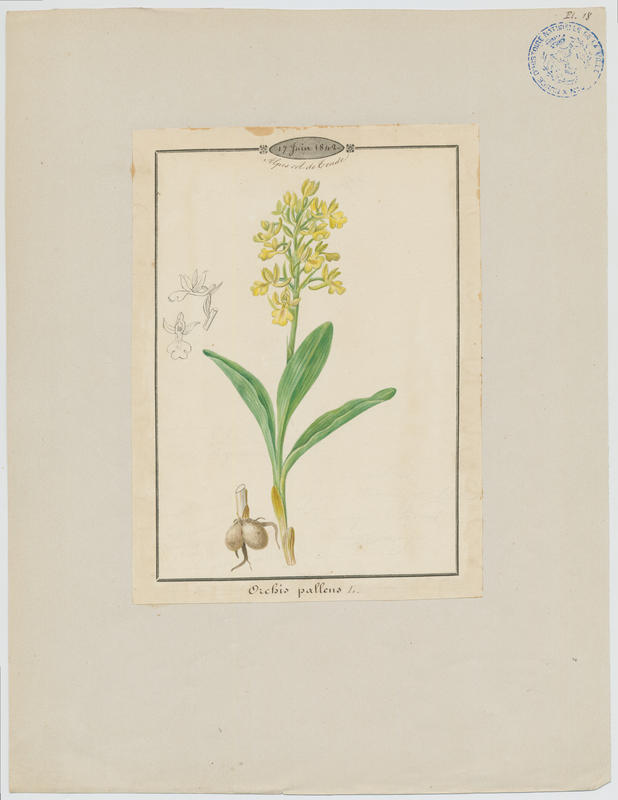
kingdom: Plantae
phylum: Tracheophyta
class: Liliopsida
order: Asparagales
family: Orchidaceae
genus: Orchis
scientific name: Orchis pallens
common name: Pale-flowered orchid
